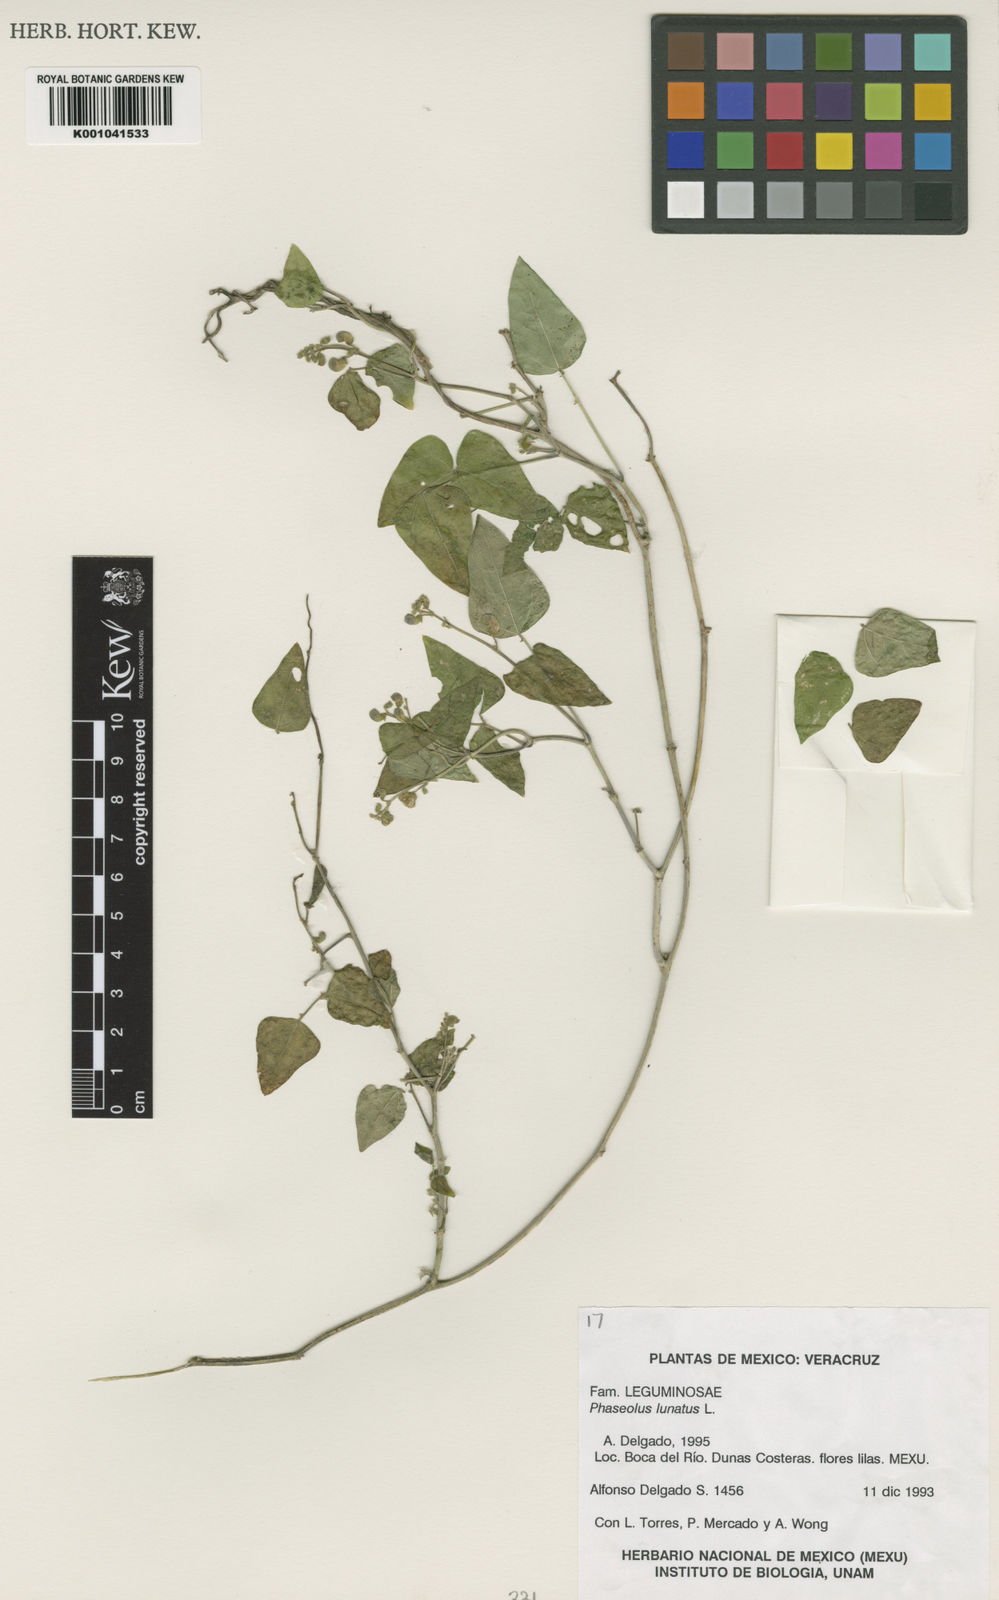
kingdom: Plantae
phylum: Tracheophyta
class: Magnoliopsida
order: Fabales
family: Fabaceae
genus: Phaseolus
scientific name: Phaseolus lunatus
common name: Sieva bean
